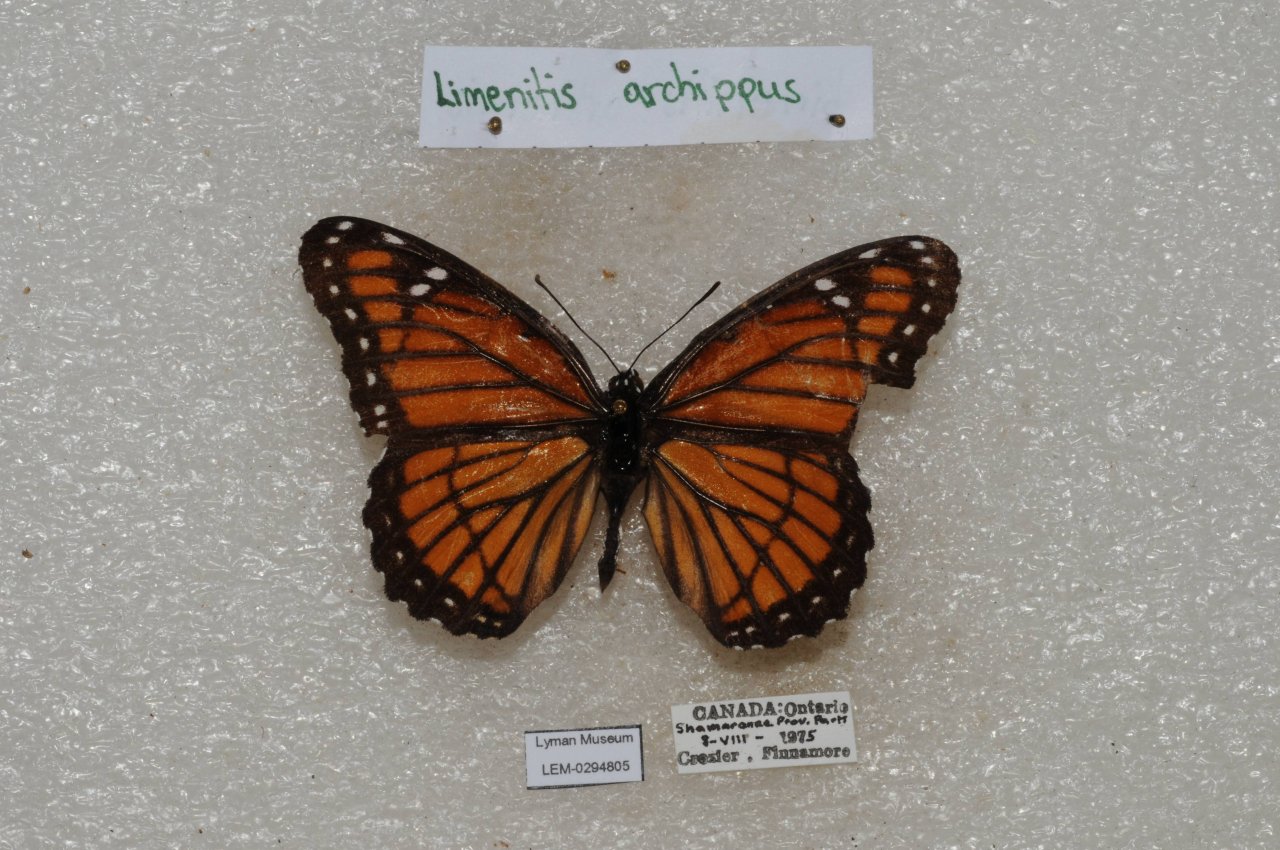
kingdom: Animalia
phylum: Arthropoda
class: Insecta
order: Lepidoptera
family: Nymphalidae
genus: Limenitis
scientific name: Limenitis archippus
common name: Viceroy
